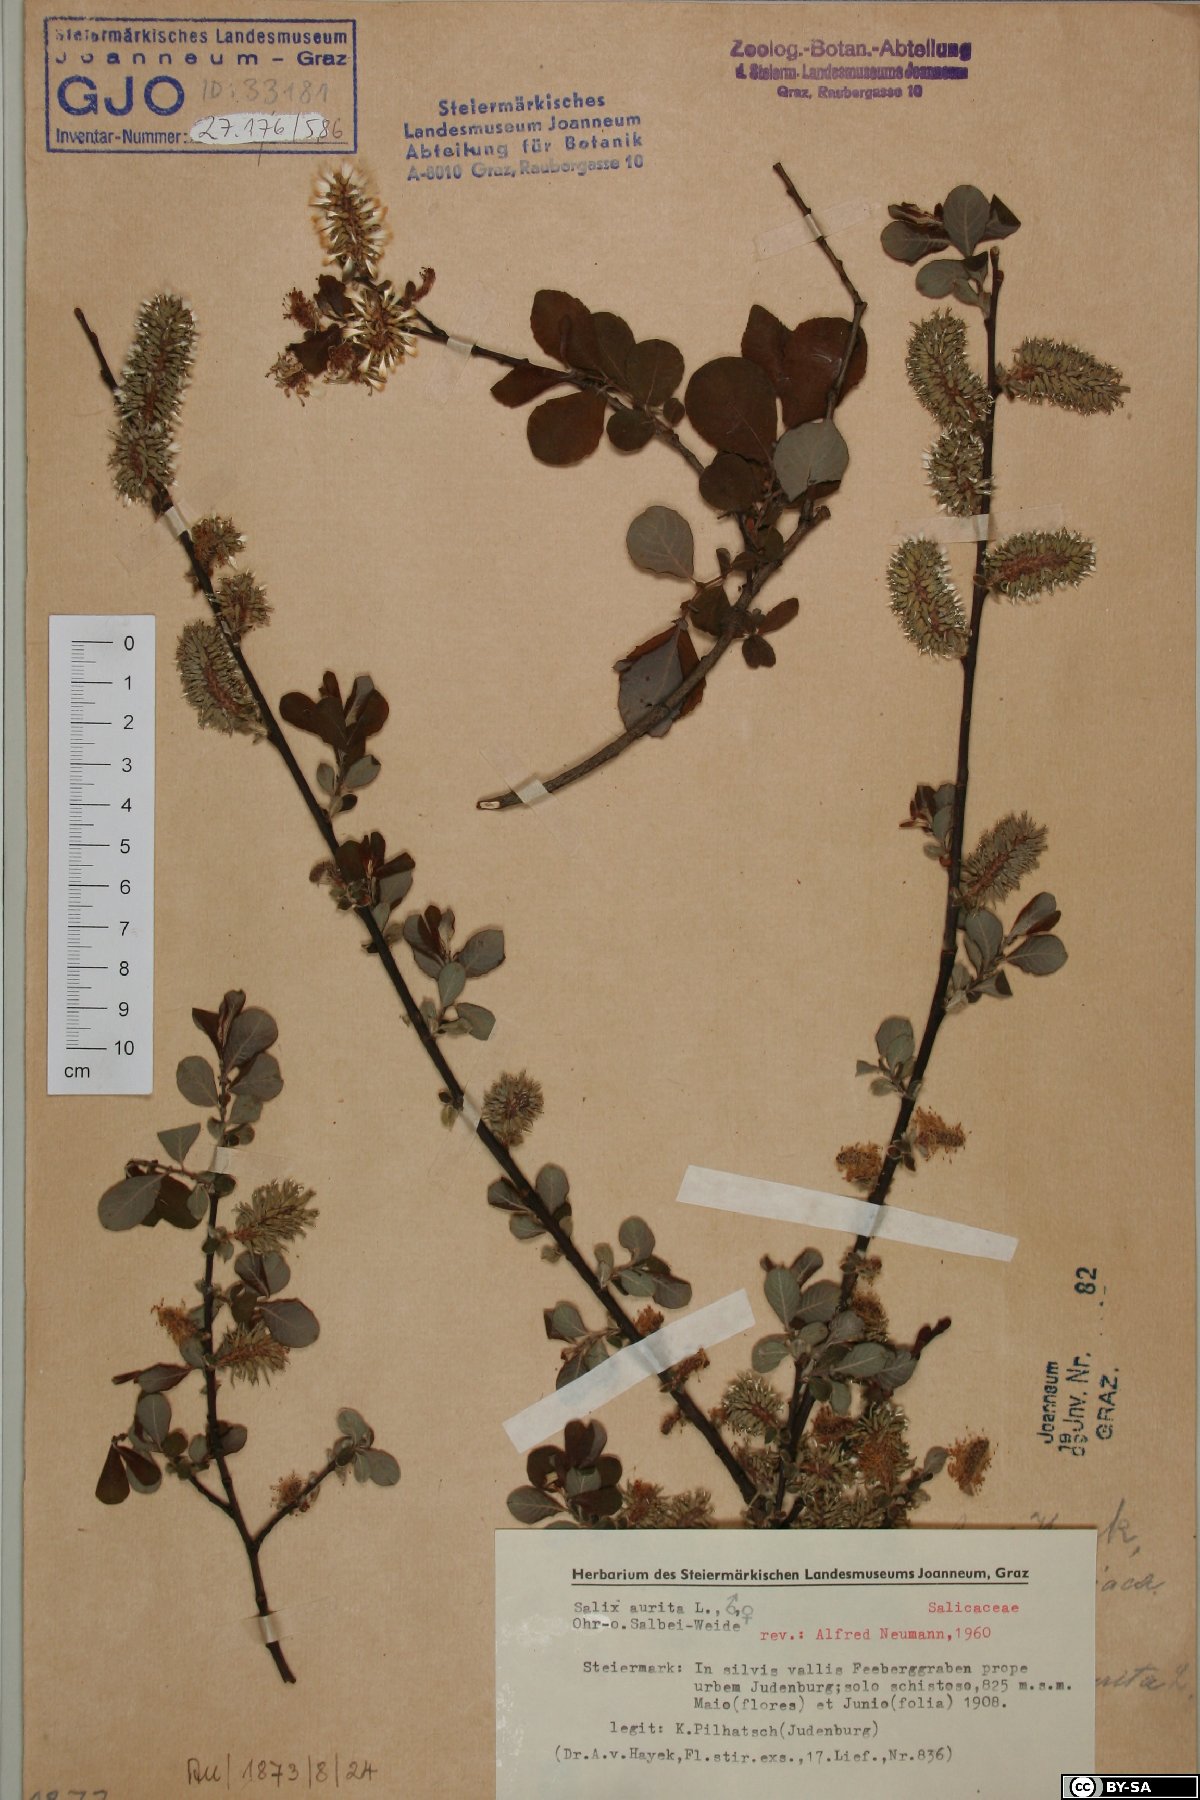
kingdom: Plantae
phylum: Tracheophyta
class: Magnoliopsida
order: Malpighiales
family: Salicaceae
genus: Salix
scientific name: Salix aurita
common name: Eared willow
